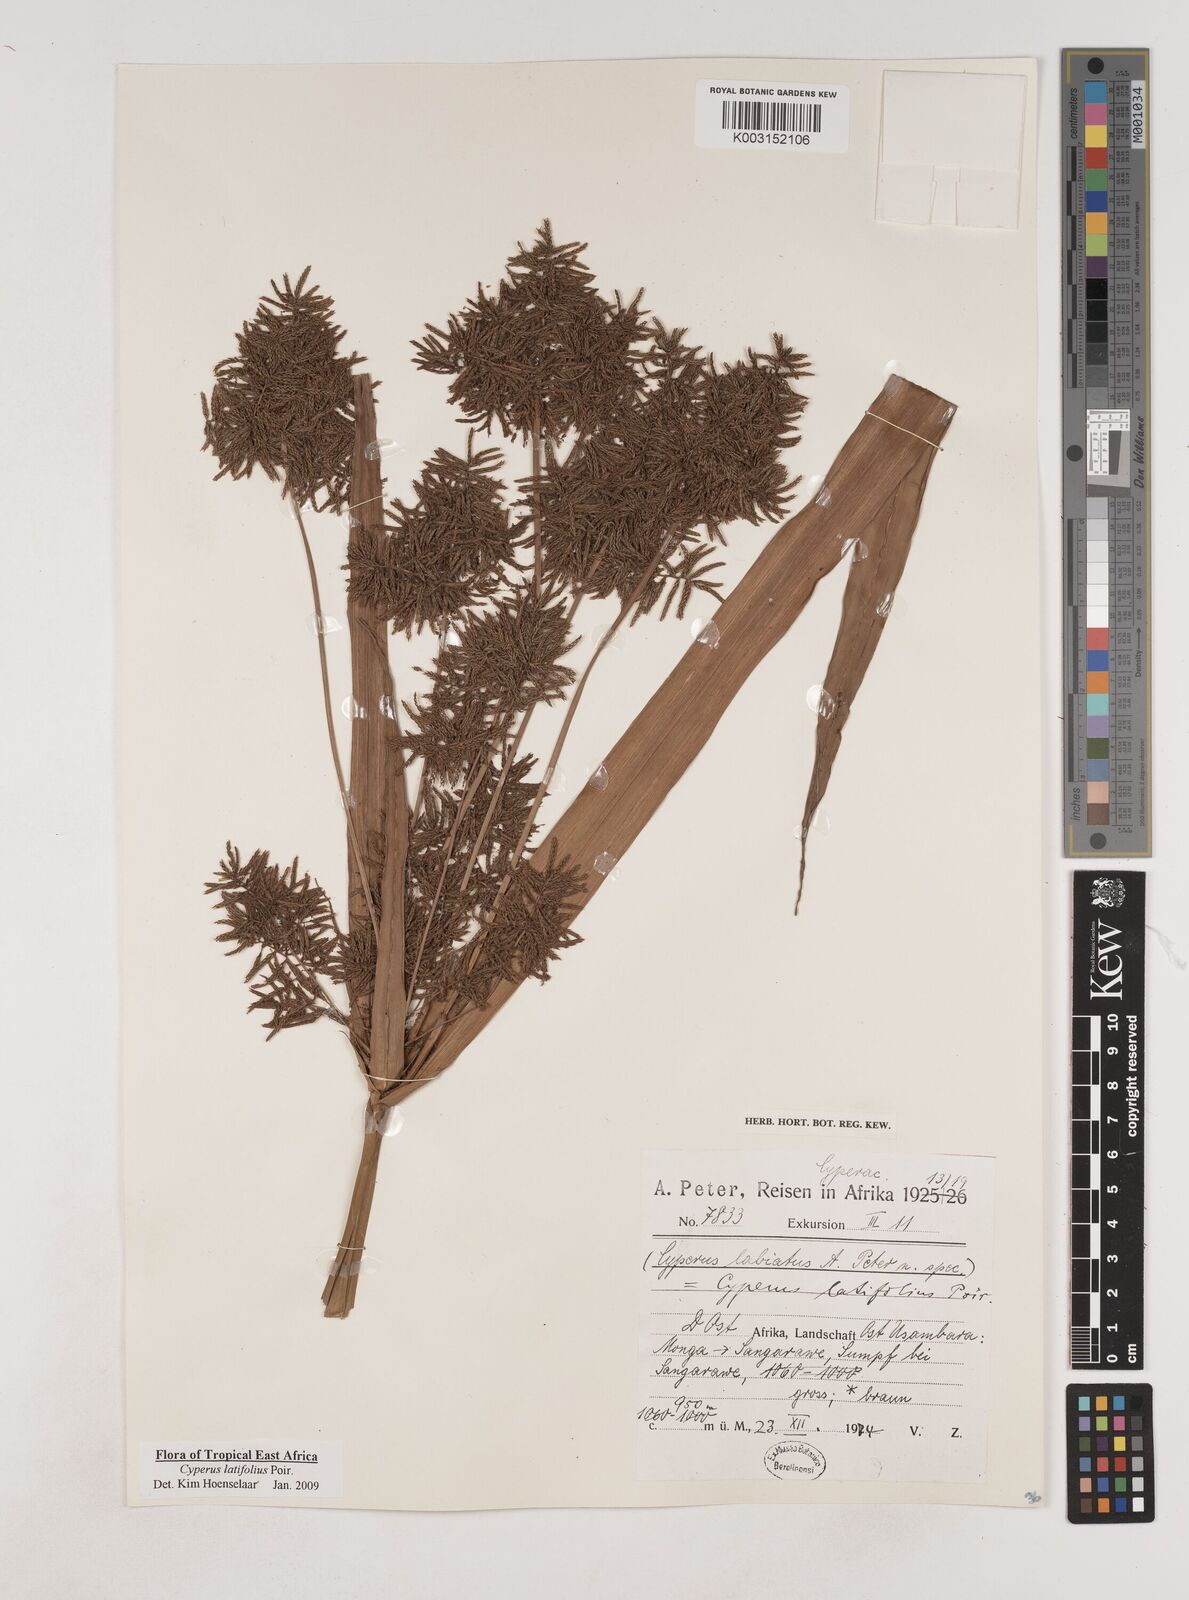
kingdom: Plantae
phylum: Tracheophyta
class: Liliopsida
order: Poales
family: Cyperaceae
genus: Cyperus
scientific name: Cyperus latifolius
